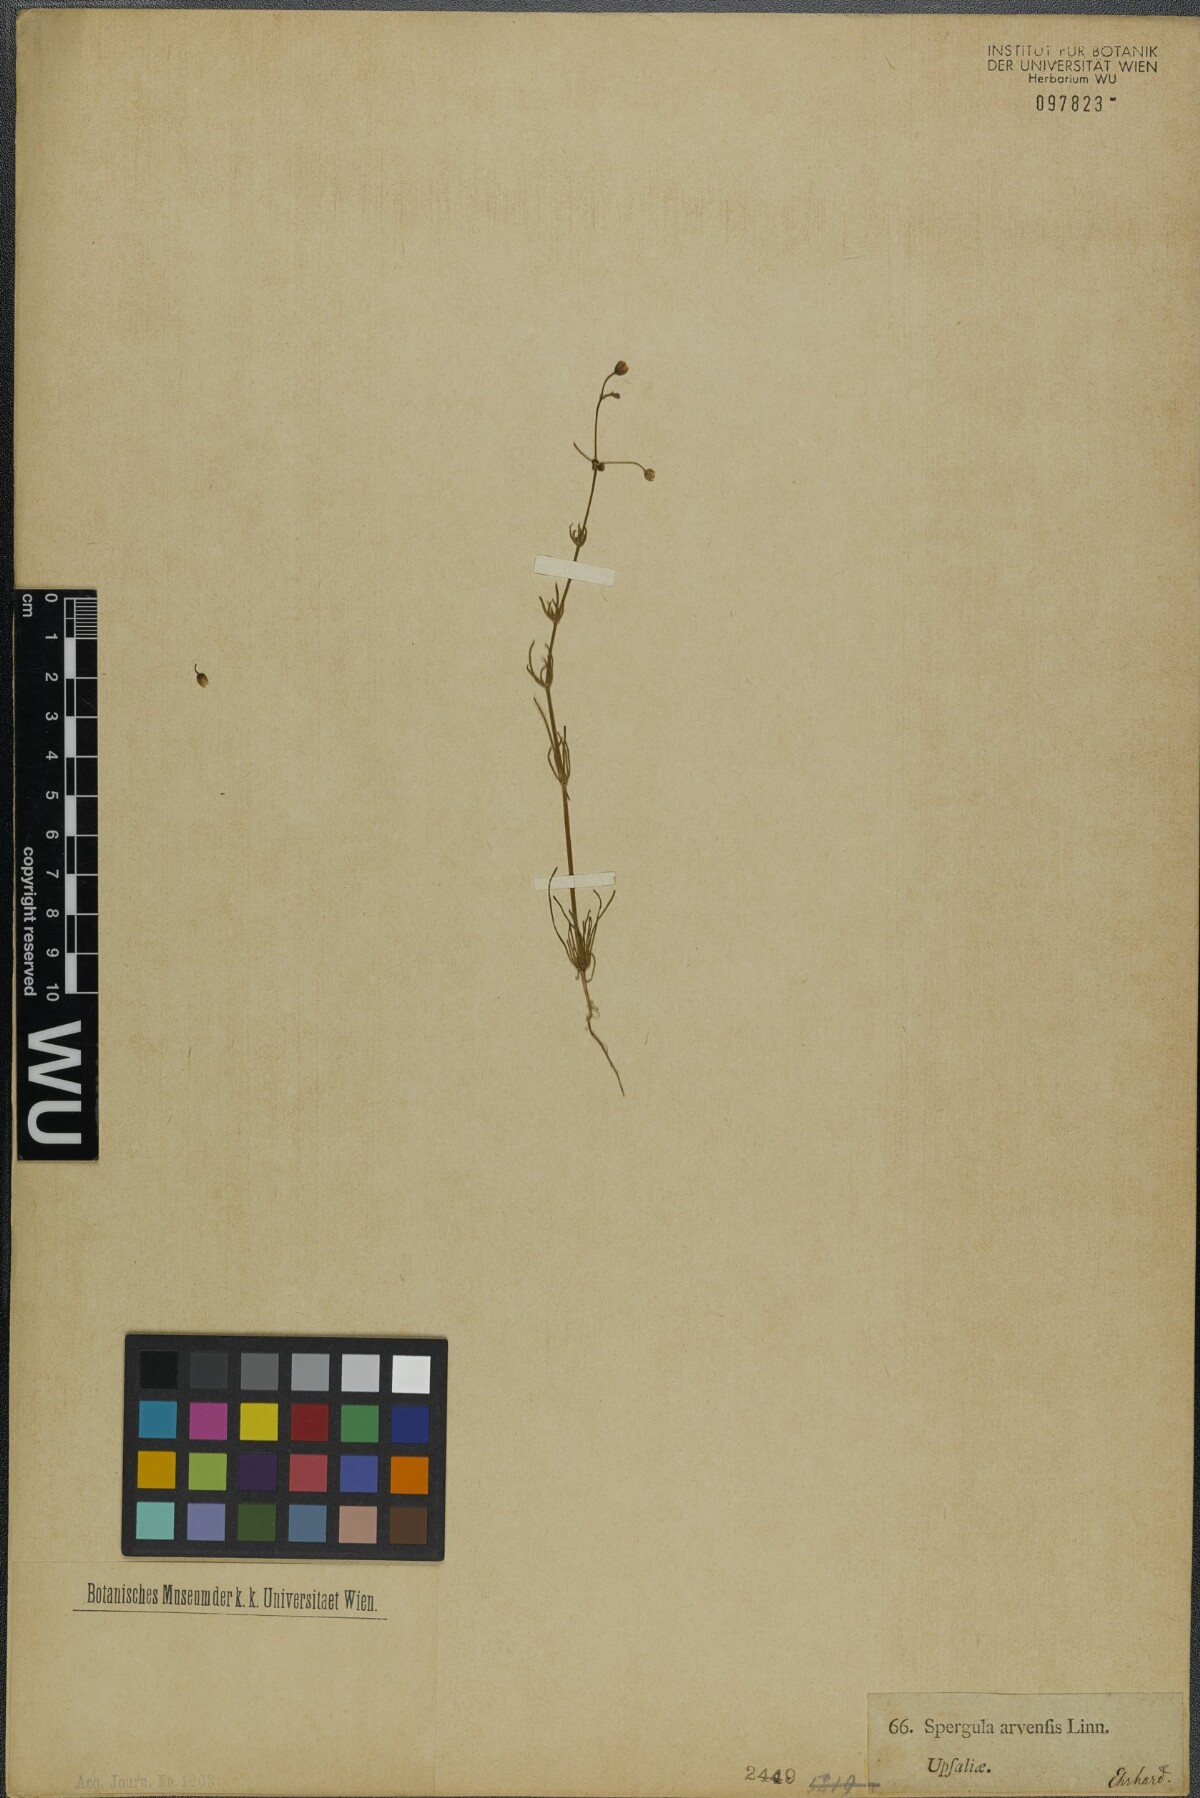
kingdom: Plantae
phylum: Tracheophyta
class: Magnoliopsida
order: Caryophyllales
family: Caryophyllaceae
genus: Spergula
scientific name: Spergula arvensis
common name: Corn spurrey
